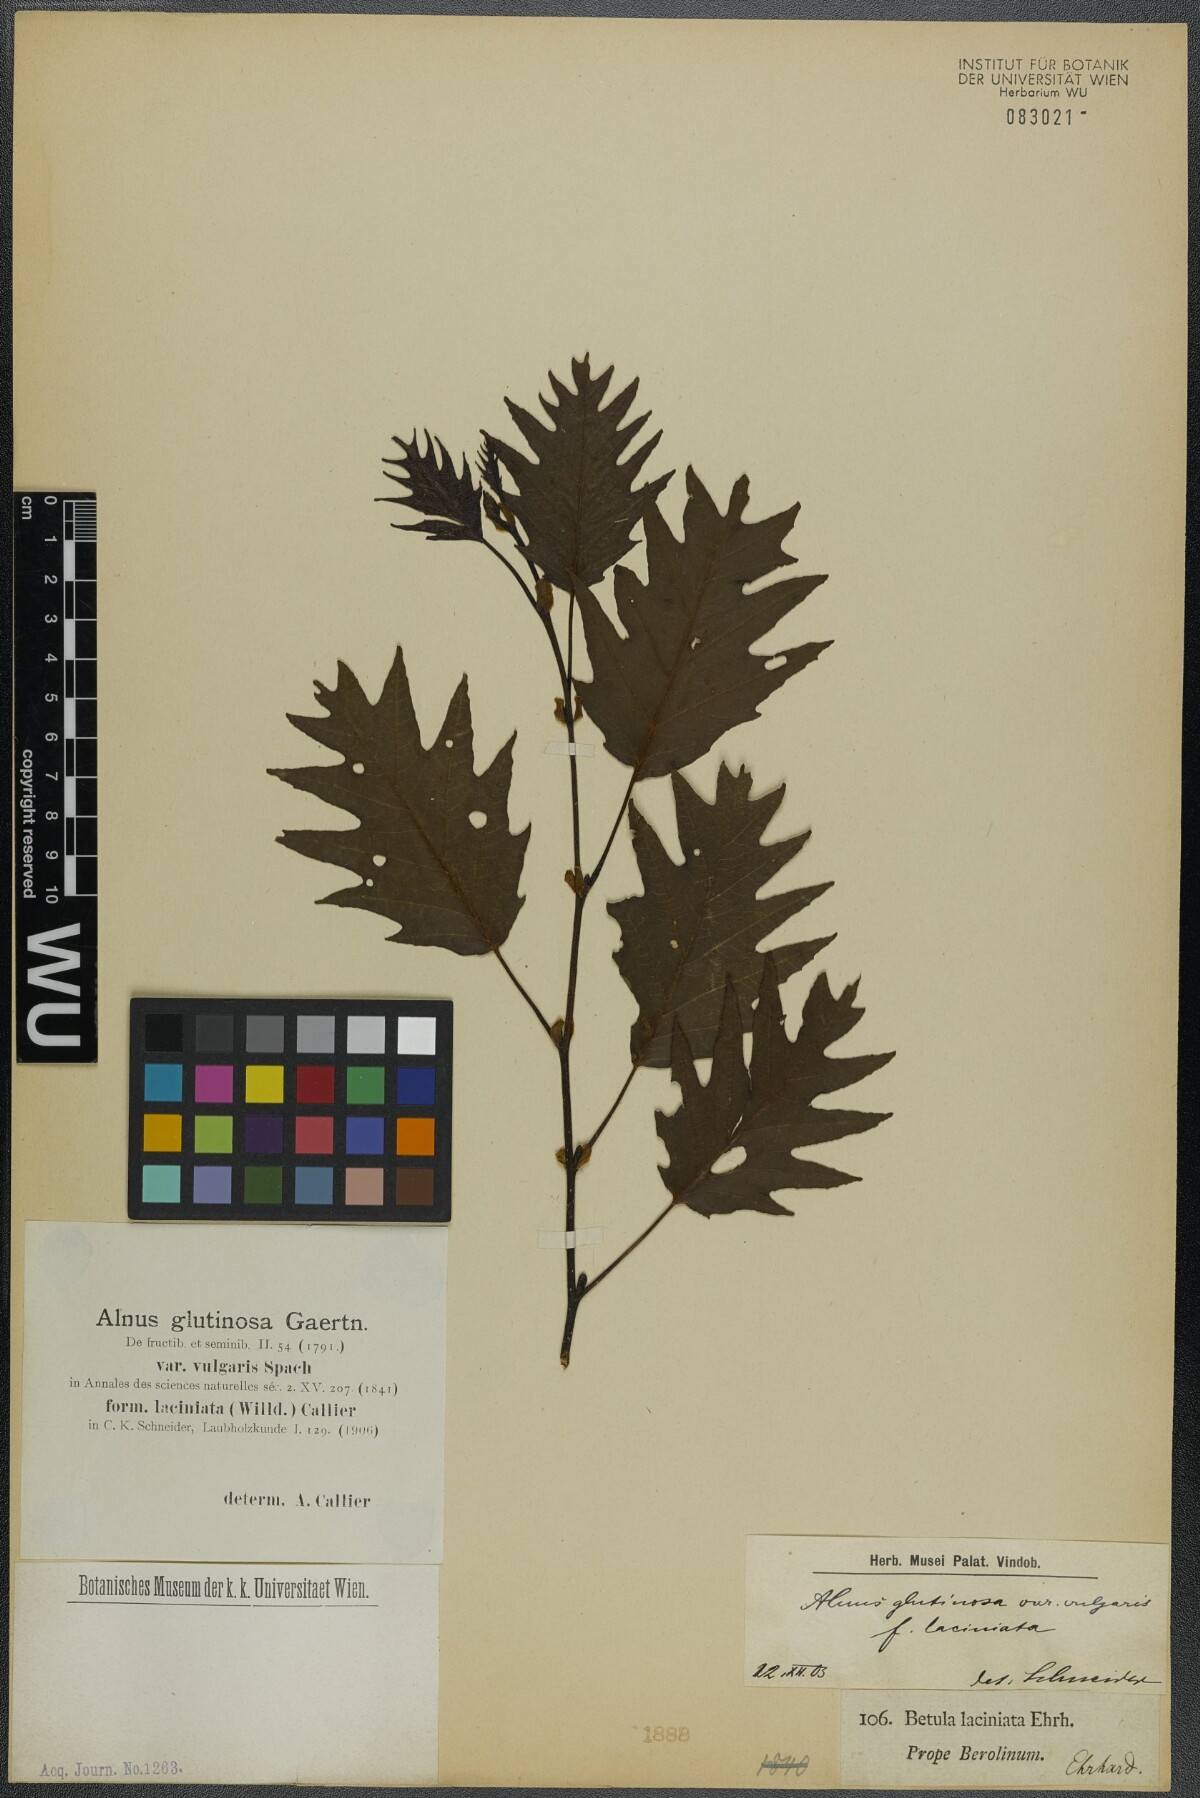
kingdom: Plantae
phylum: Tracheophyta
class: Magnoliopsida
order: Fagales
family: Betulaceae
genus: Alnus
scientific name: Alnus glutinosa
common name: Black alder
